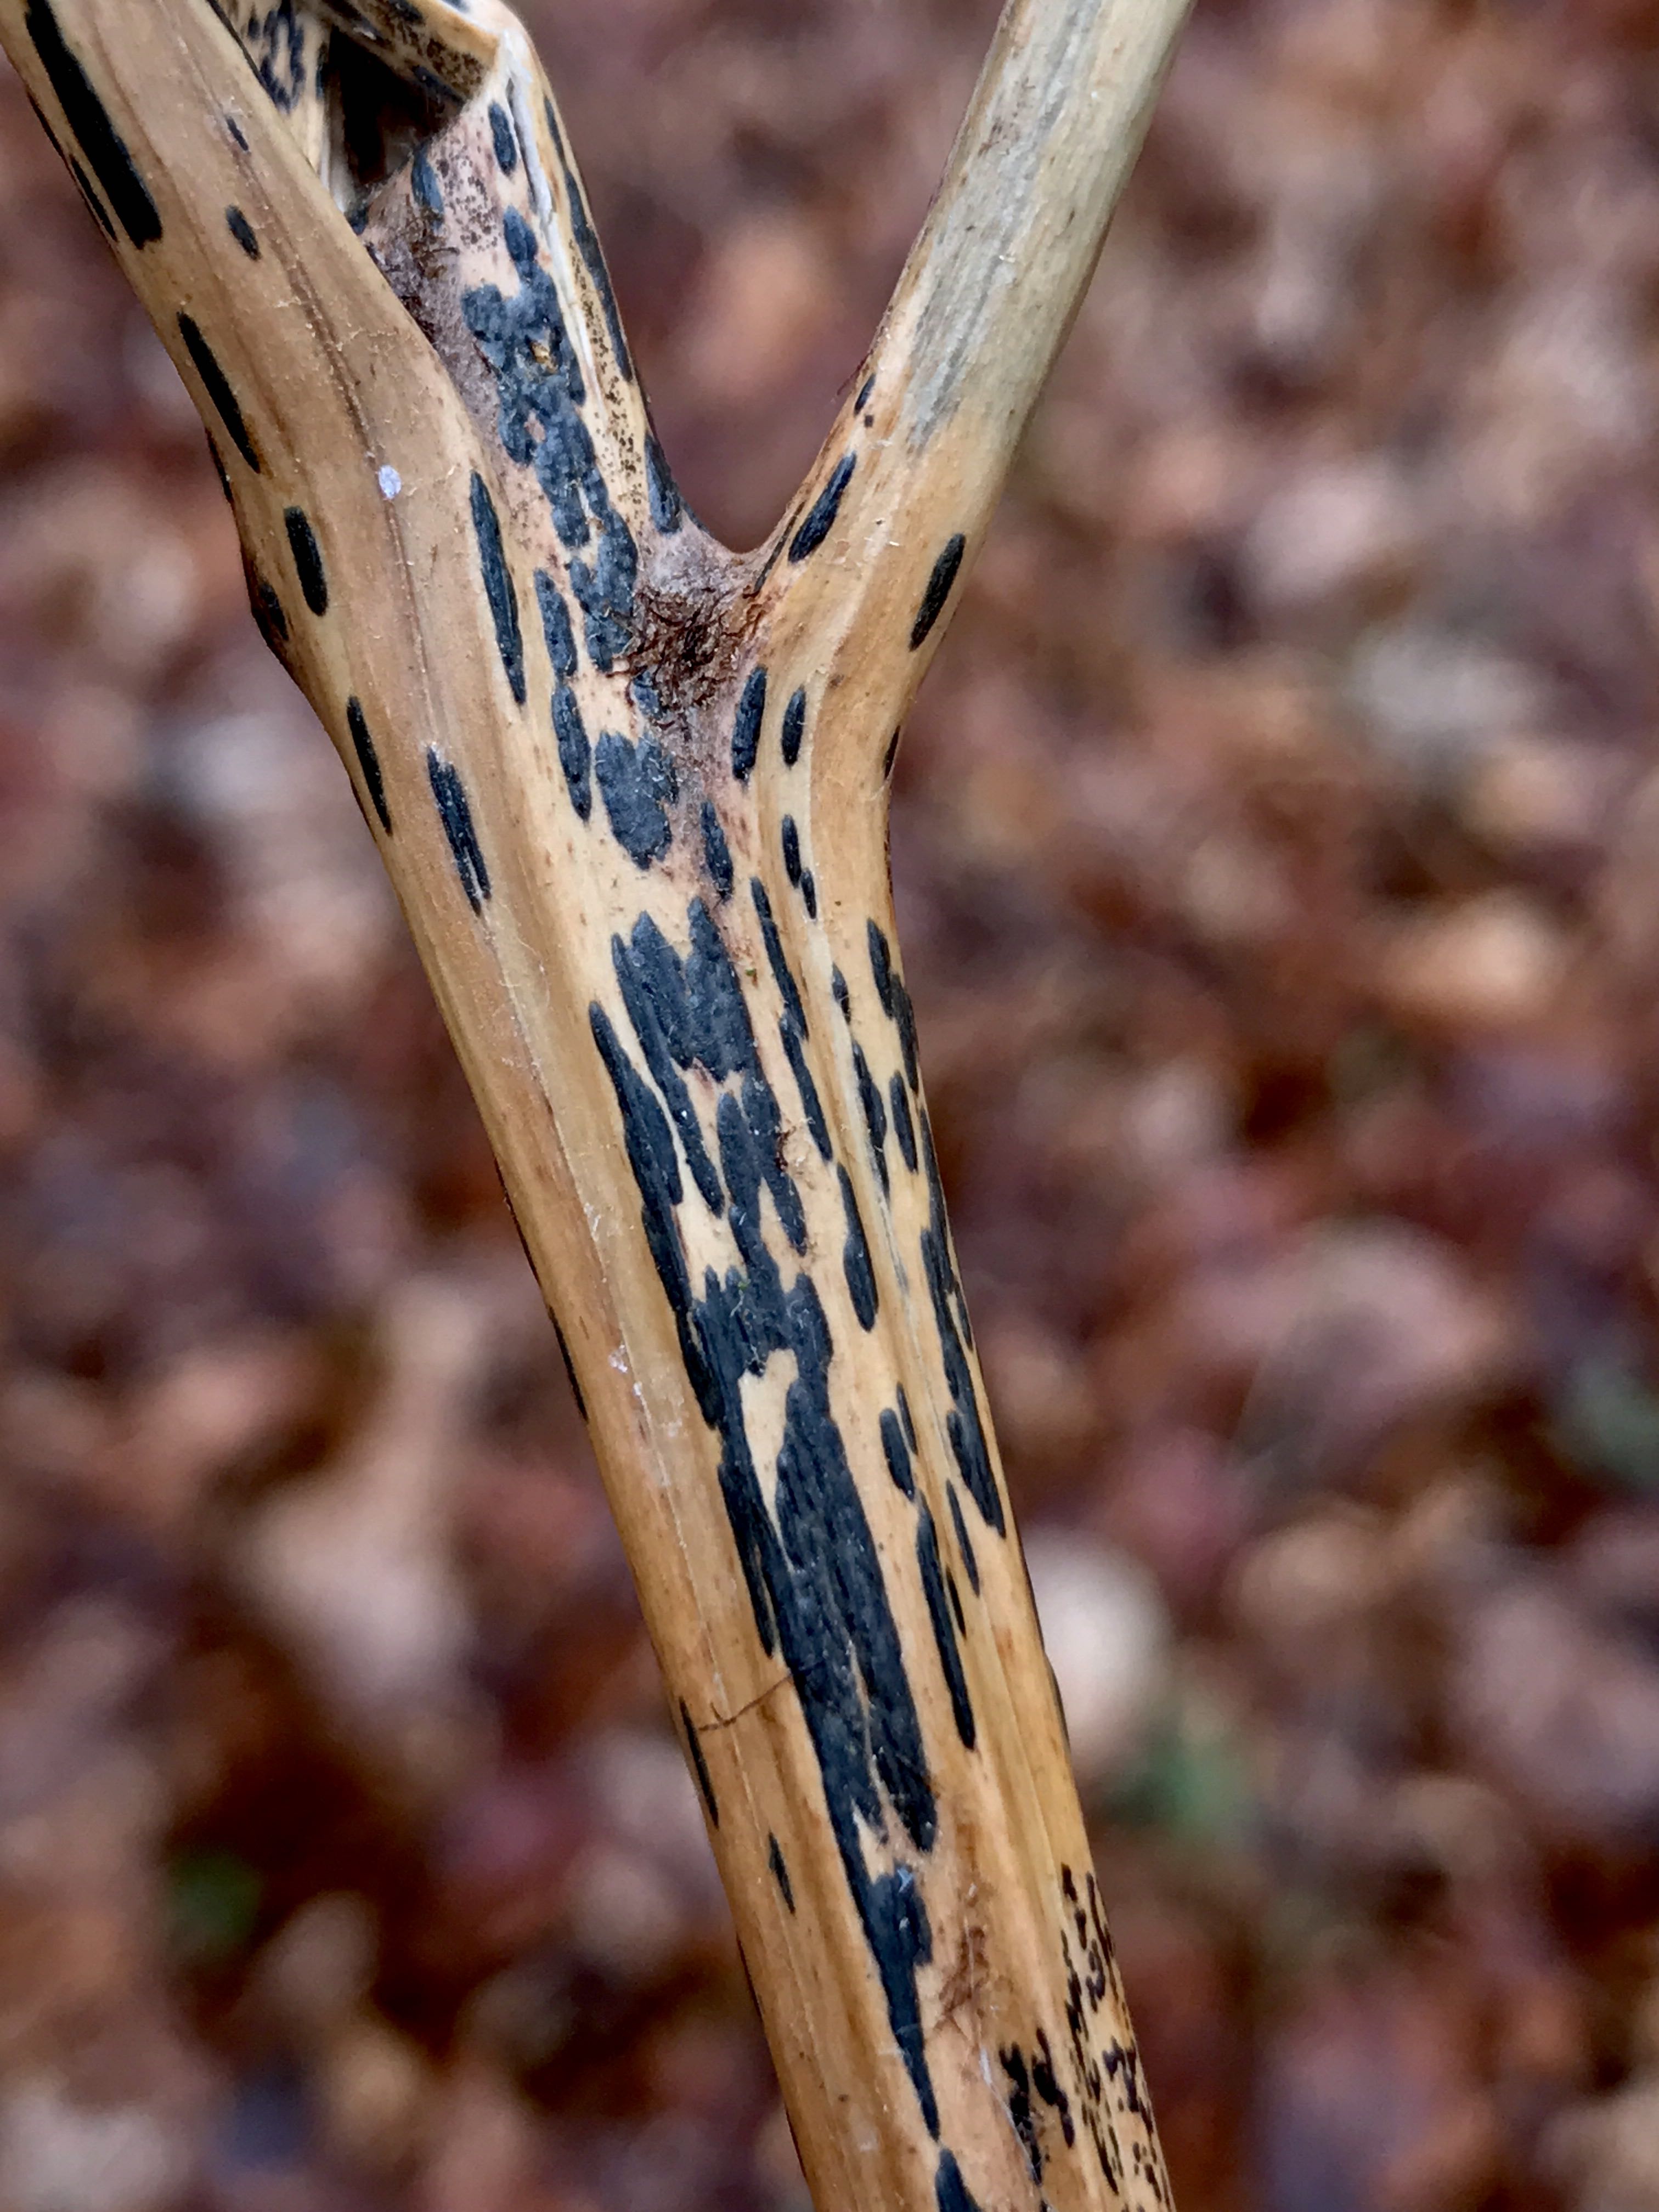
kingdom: Fungi
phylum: Ascomycota
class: Dothideomycetes
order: Pleosporales
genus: Rhopographus
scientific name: Rhopographus filicinus
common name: Bracken map
